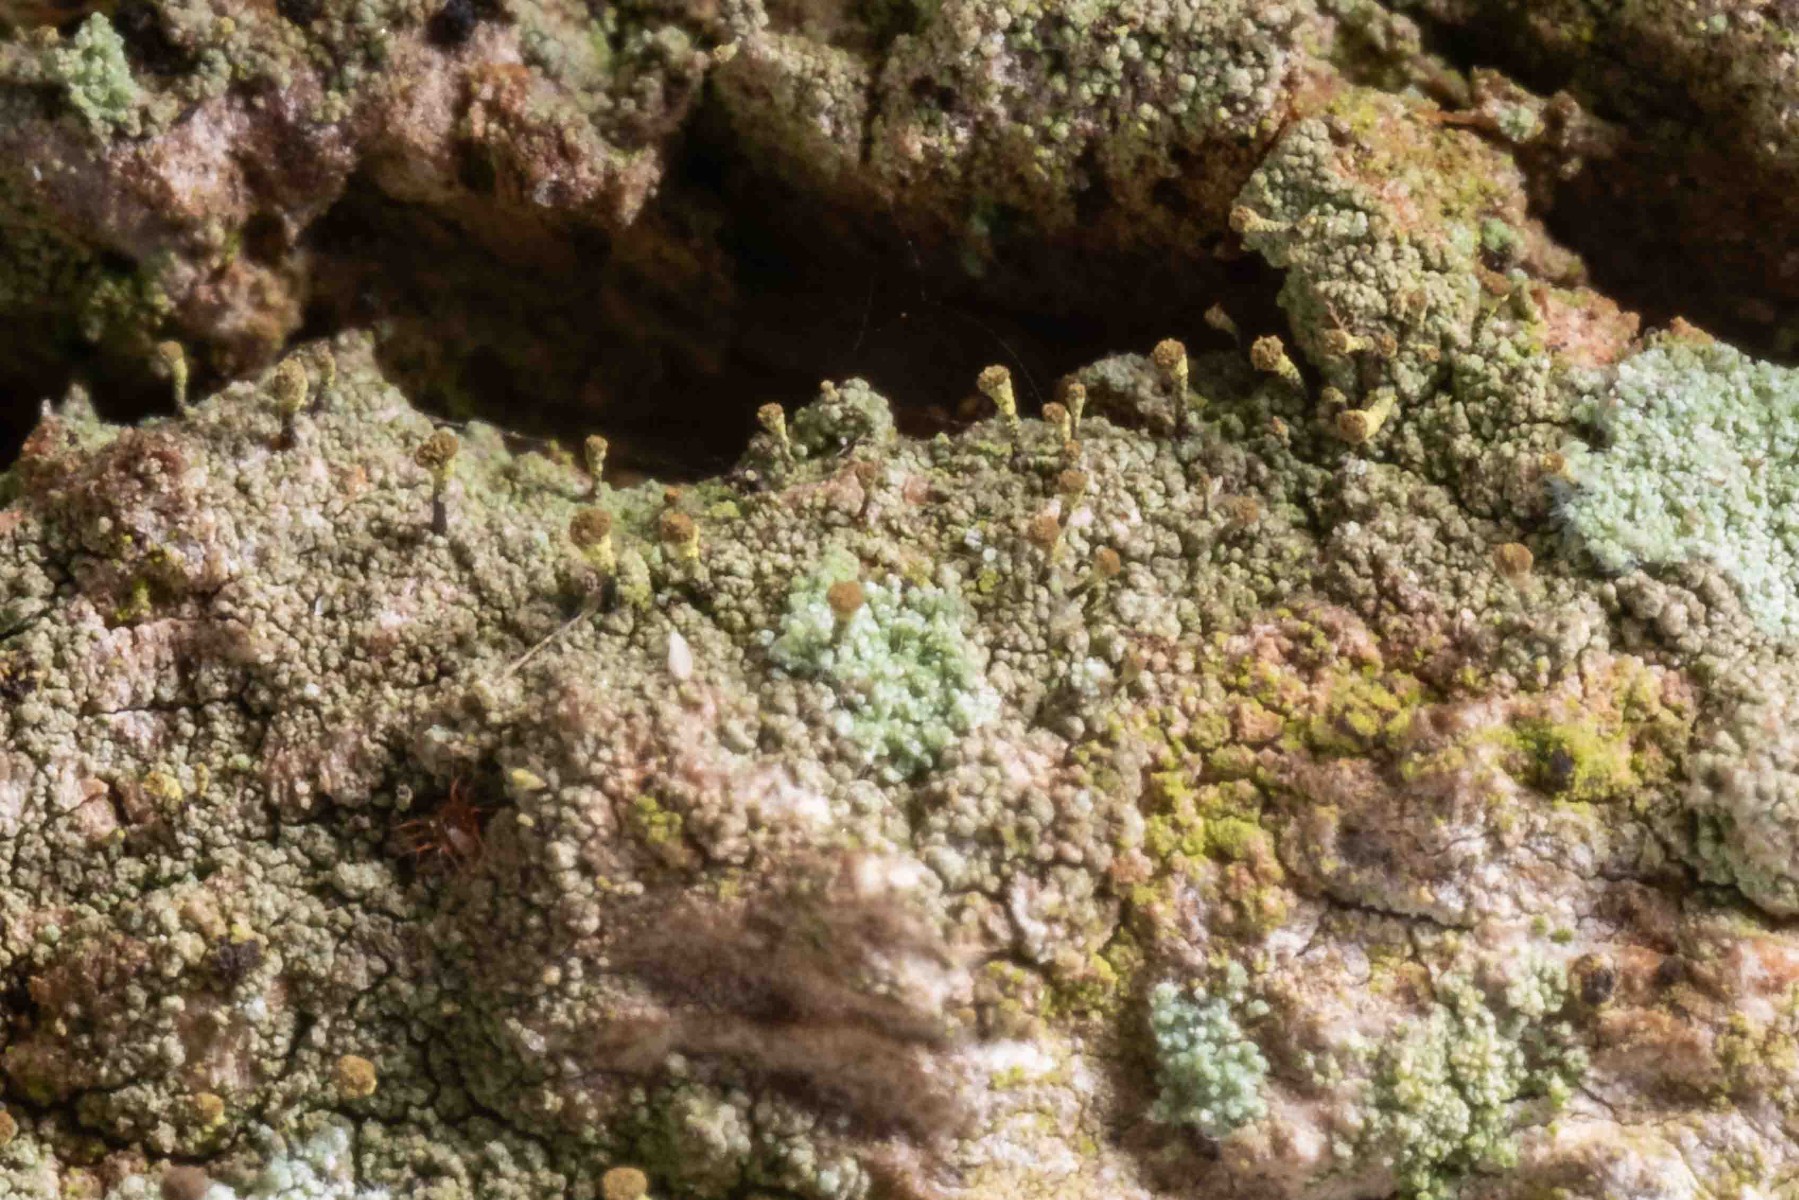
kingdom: Fungi
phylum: Ascomycota
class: Coniocybomycetes
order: Coniocybales
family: Coniocybaceae
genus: Chaenotheca
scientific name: Chaenotheca chlorella
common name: grønlig knappenålslav
